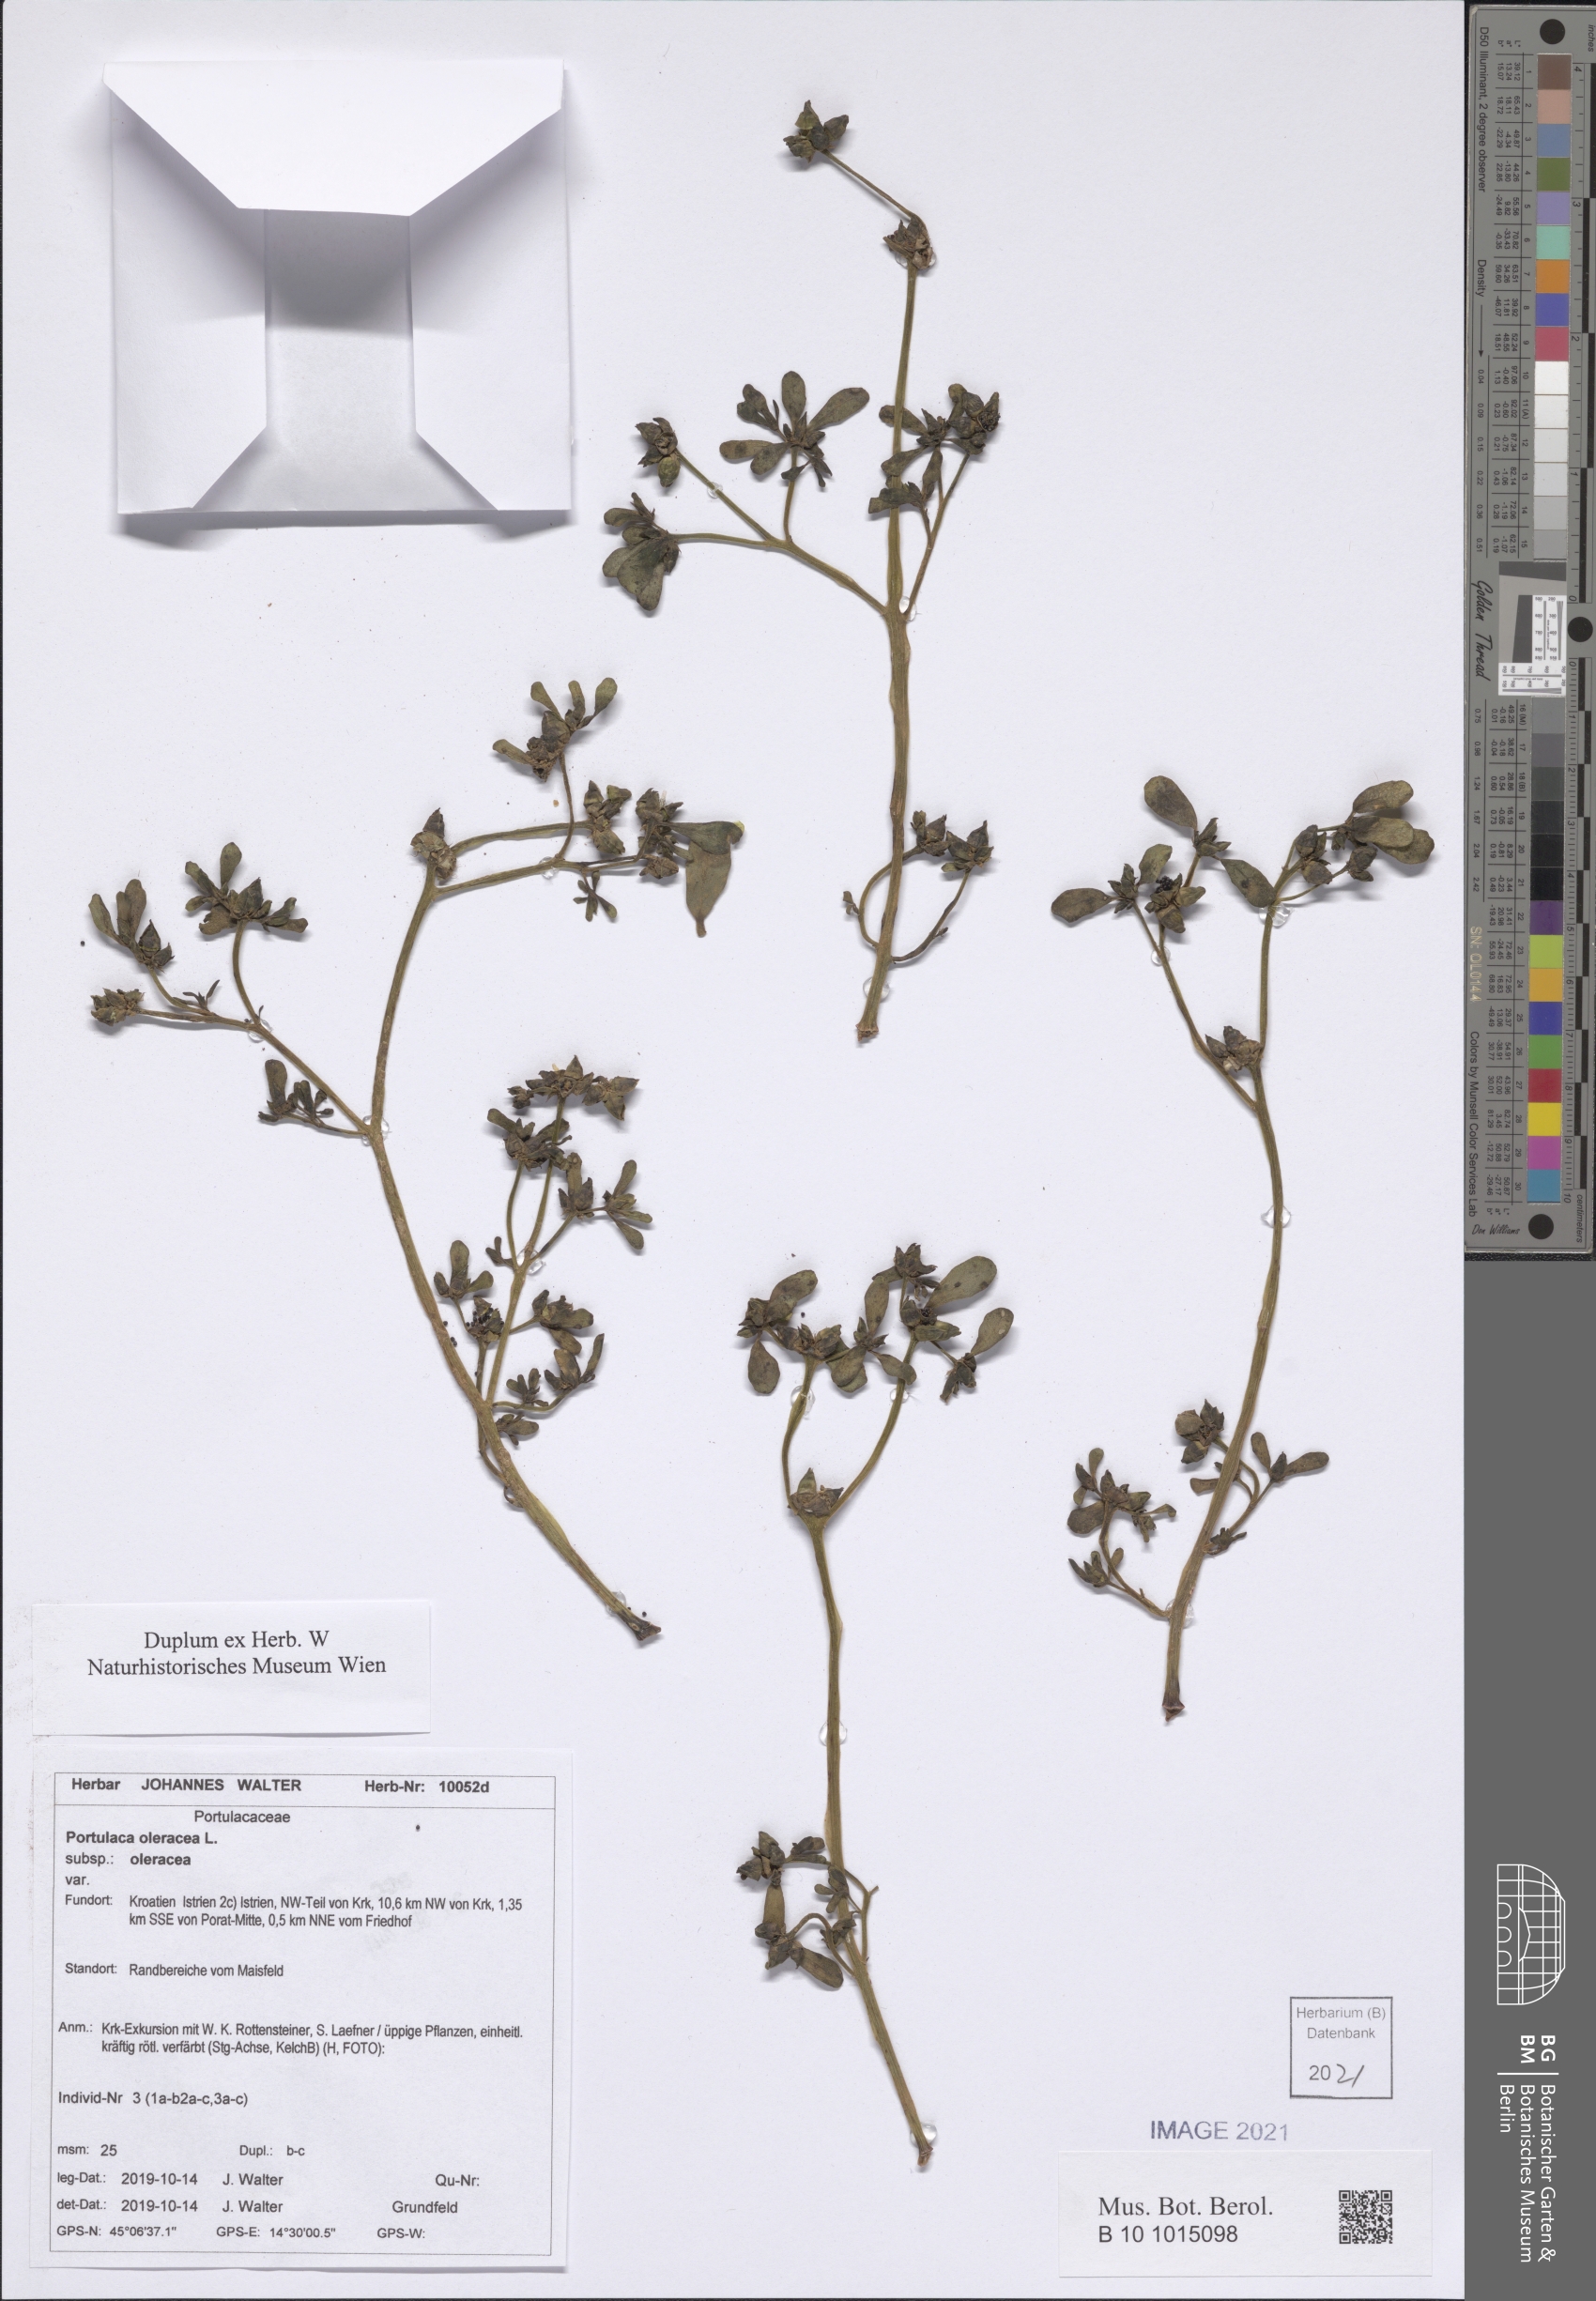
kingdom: Plantae
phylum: Tracheophyta
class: Magnoliopsida
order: Caryophyllales
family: Portulacaceae
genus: Portulaca
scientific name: Portulaca oleracea
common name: Common purslane
